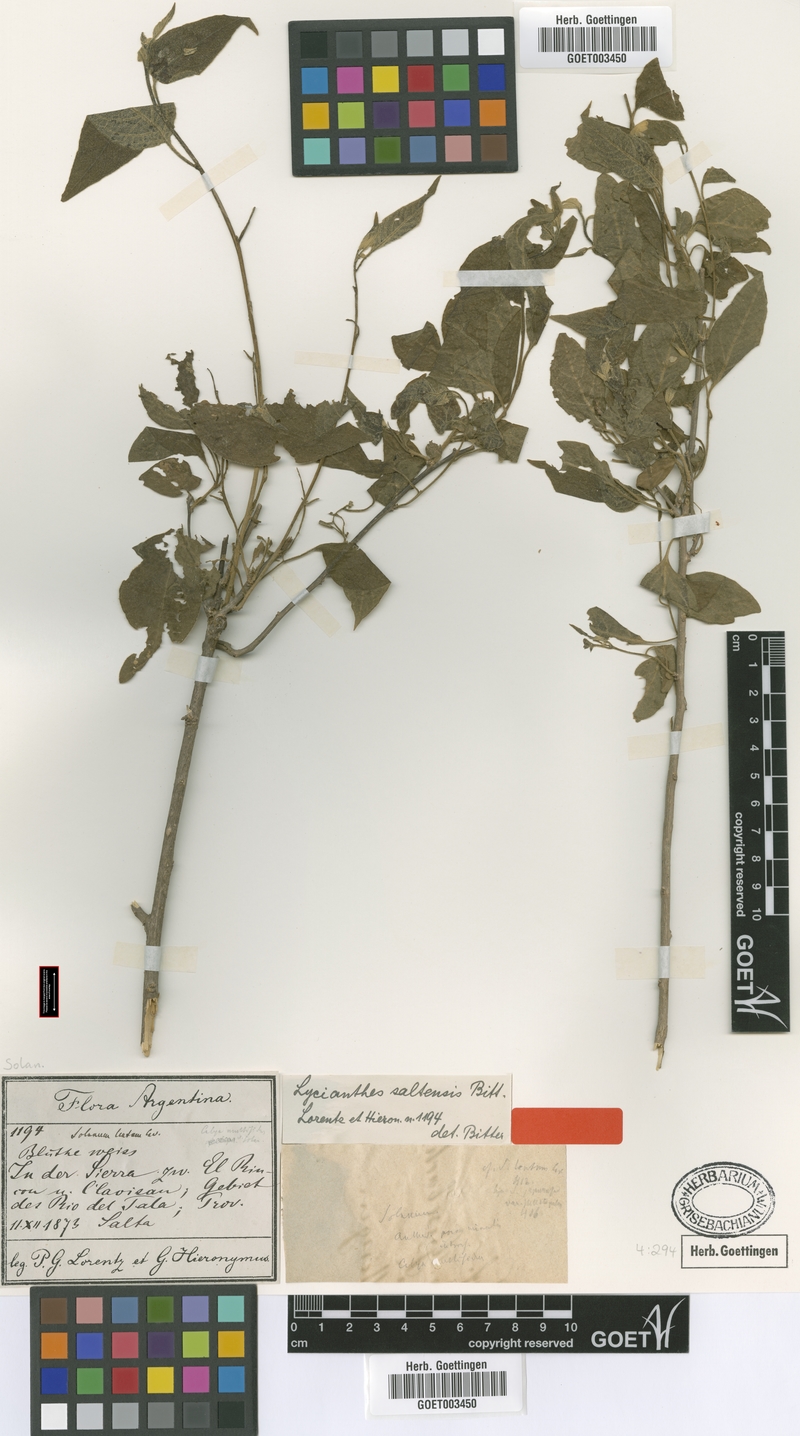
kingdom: Plantae
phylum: Tracheophyta
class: Magnoliopsida
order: Solanales
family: Solanaceae
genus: Lycianthes
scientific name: Lycianthes fasciculata
